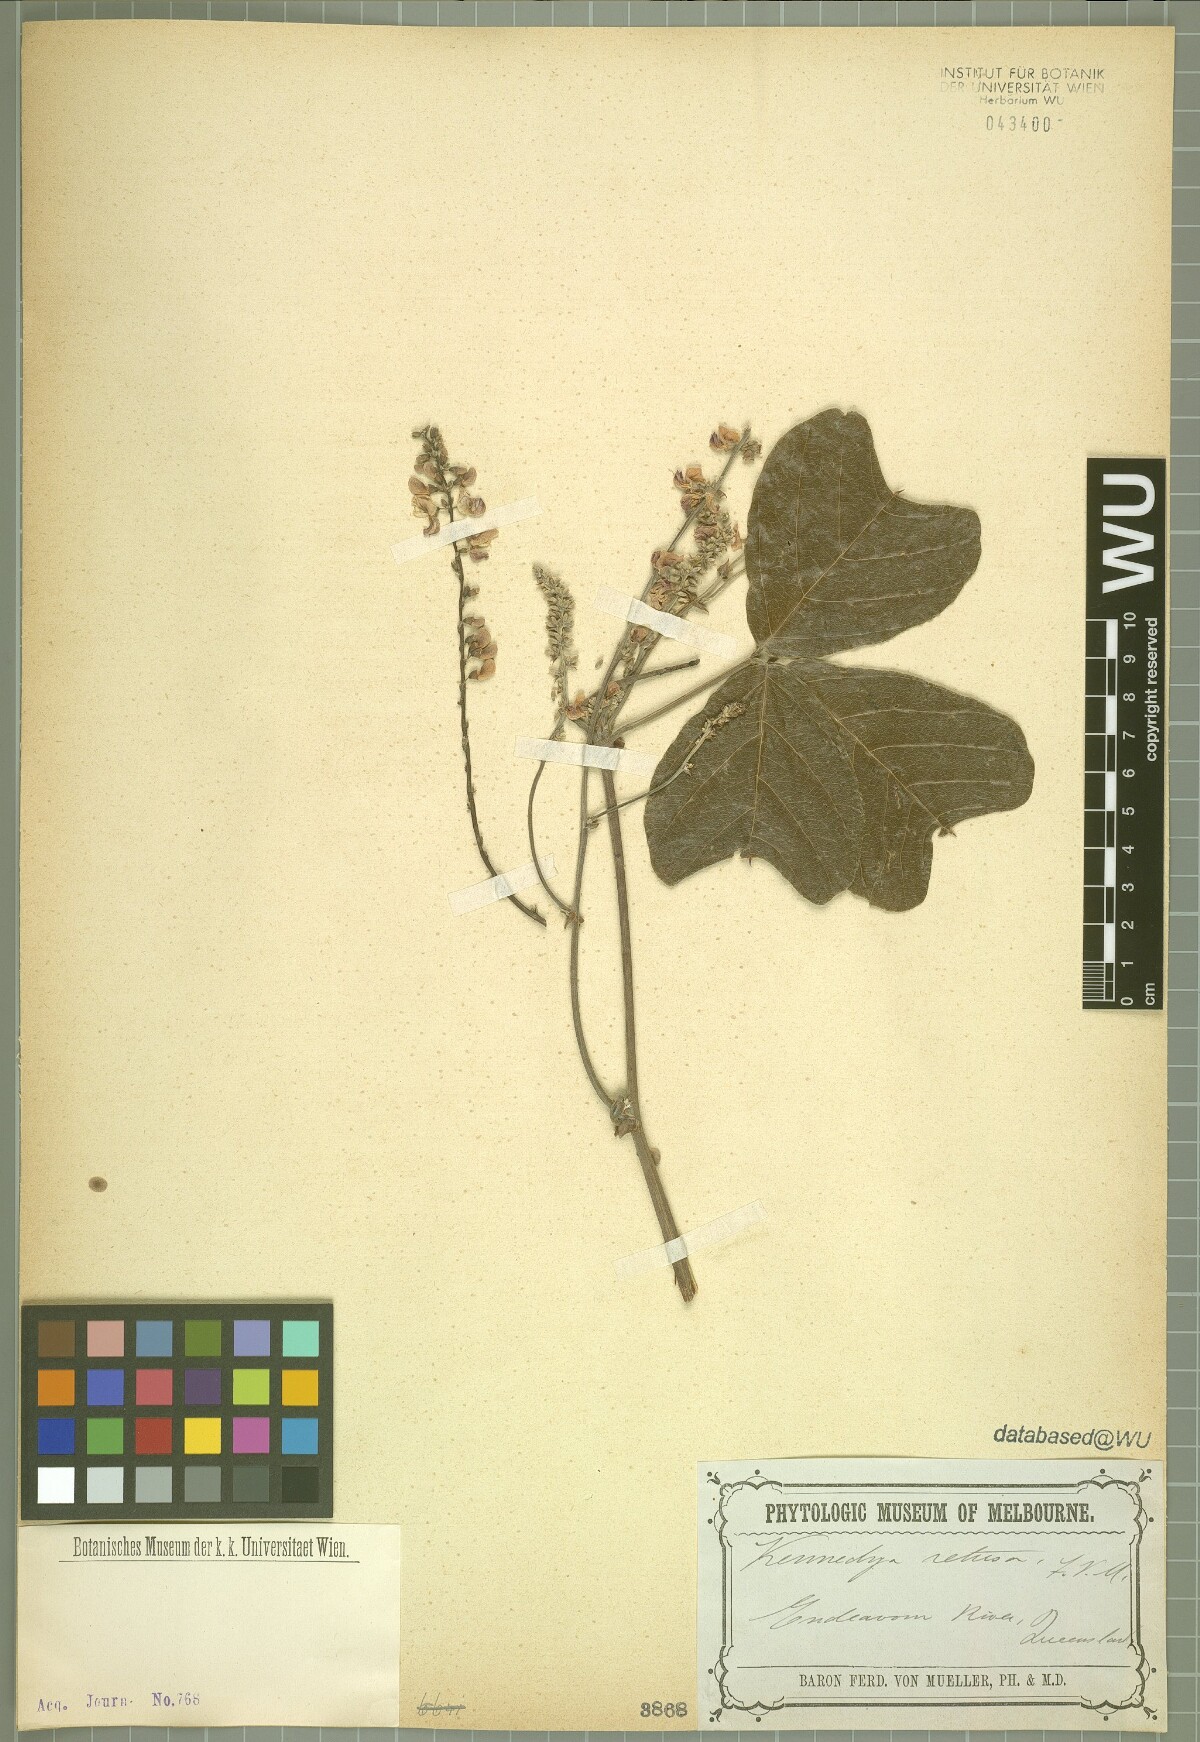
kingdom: Plantae
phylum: Tracheophyta
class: Magnoliopsida
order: Fabales
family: Fabaceae
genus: Vandasina
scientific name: Vandasina retusa
